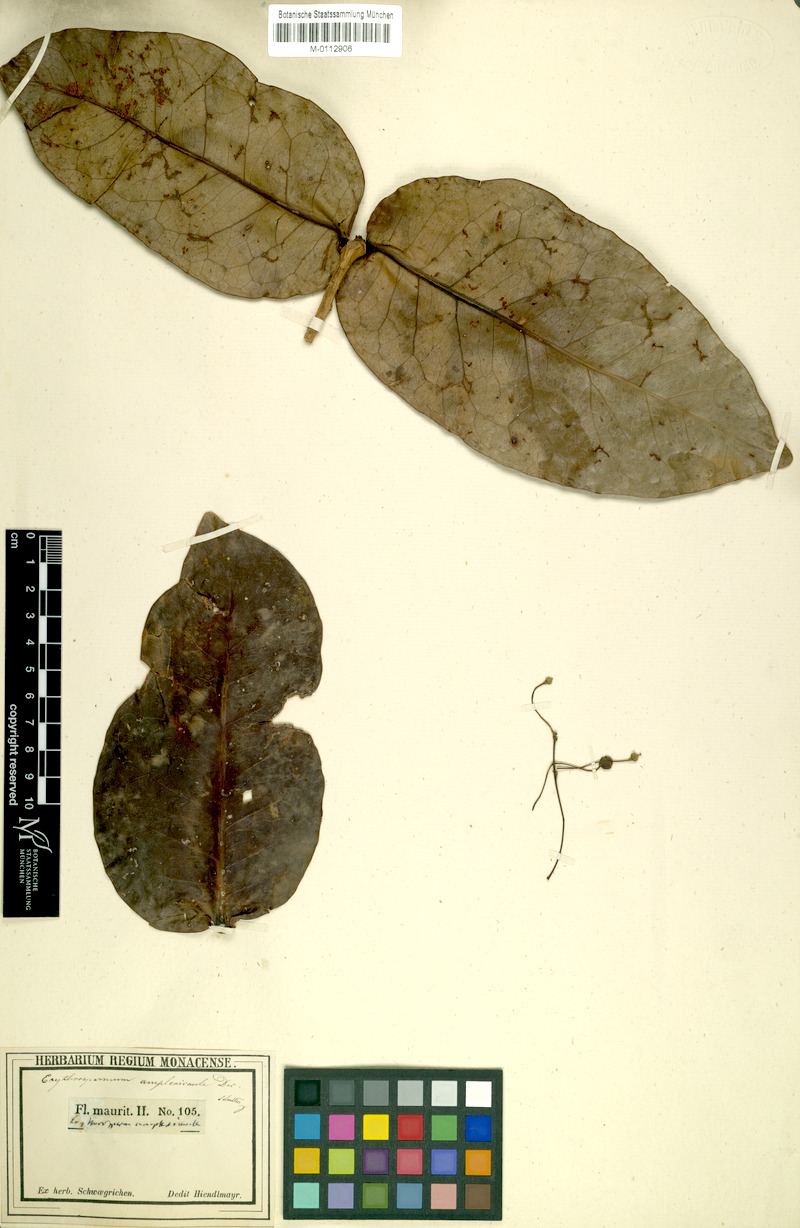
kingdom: Plantae
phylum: Tracheophyta
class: Magnoliopsida
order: Malpighiales
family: Achariaceae
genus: Erythrospermum
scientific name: Erythrospermum monticola
